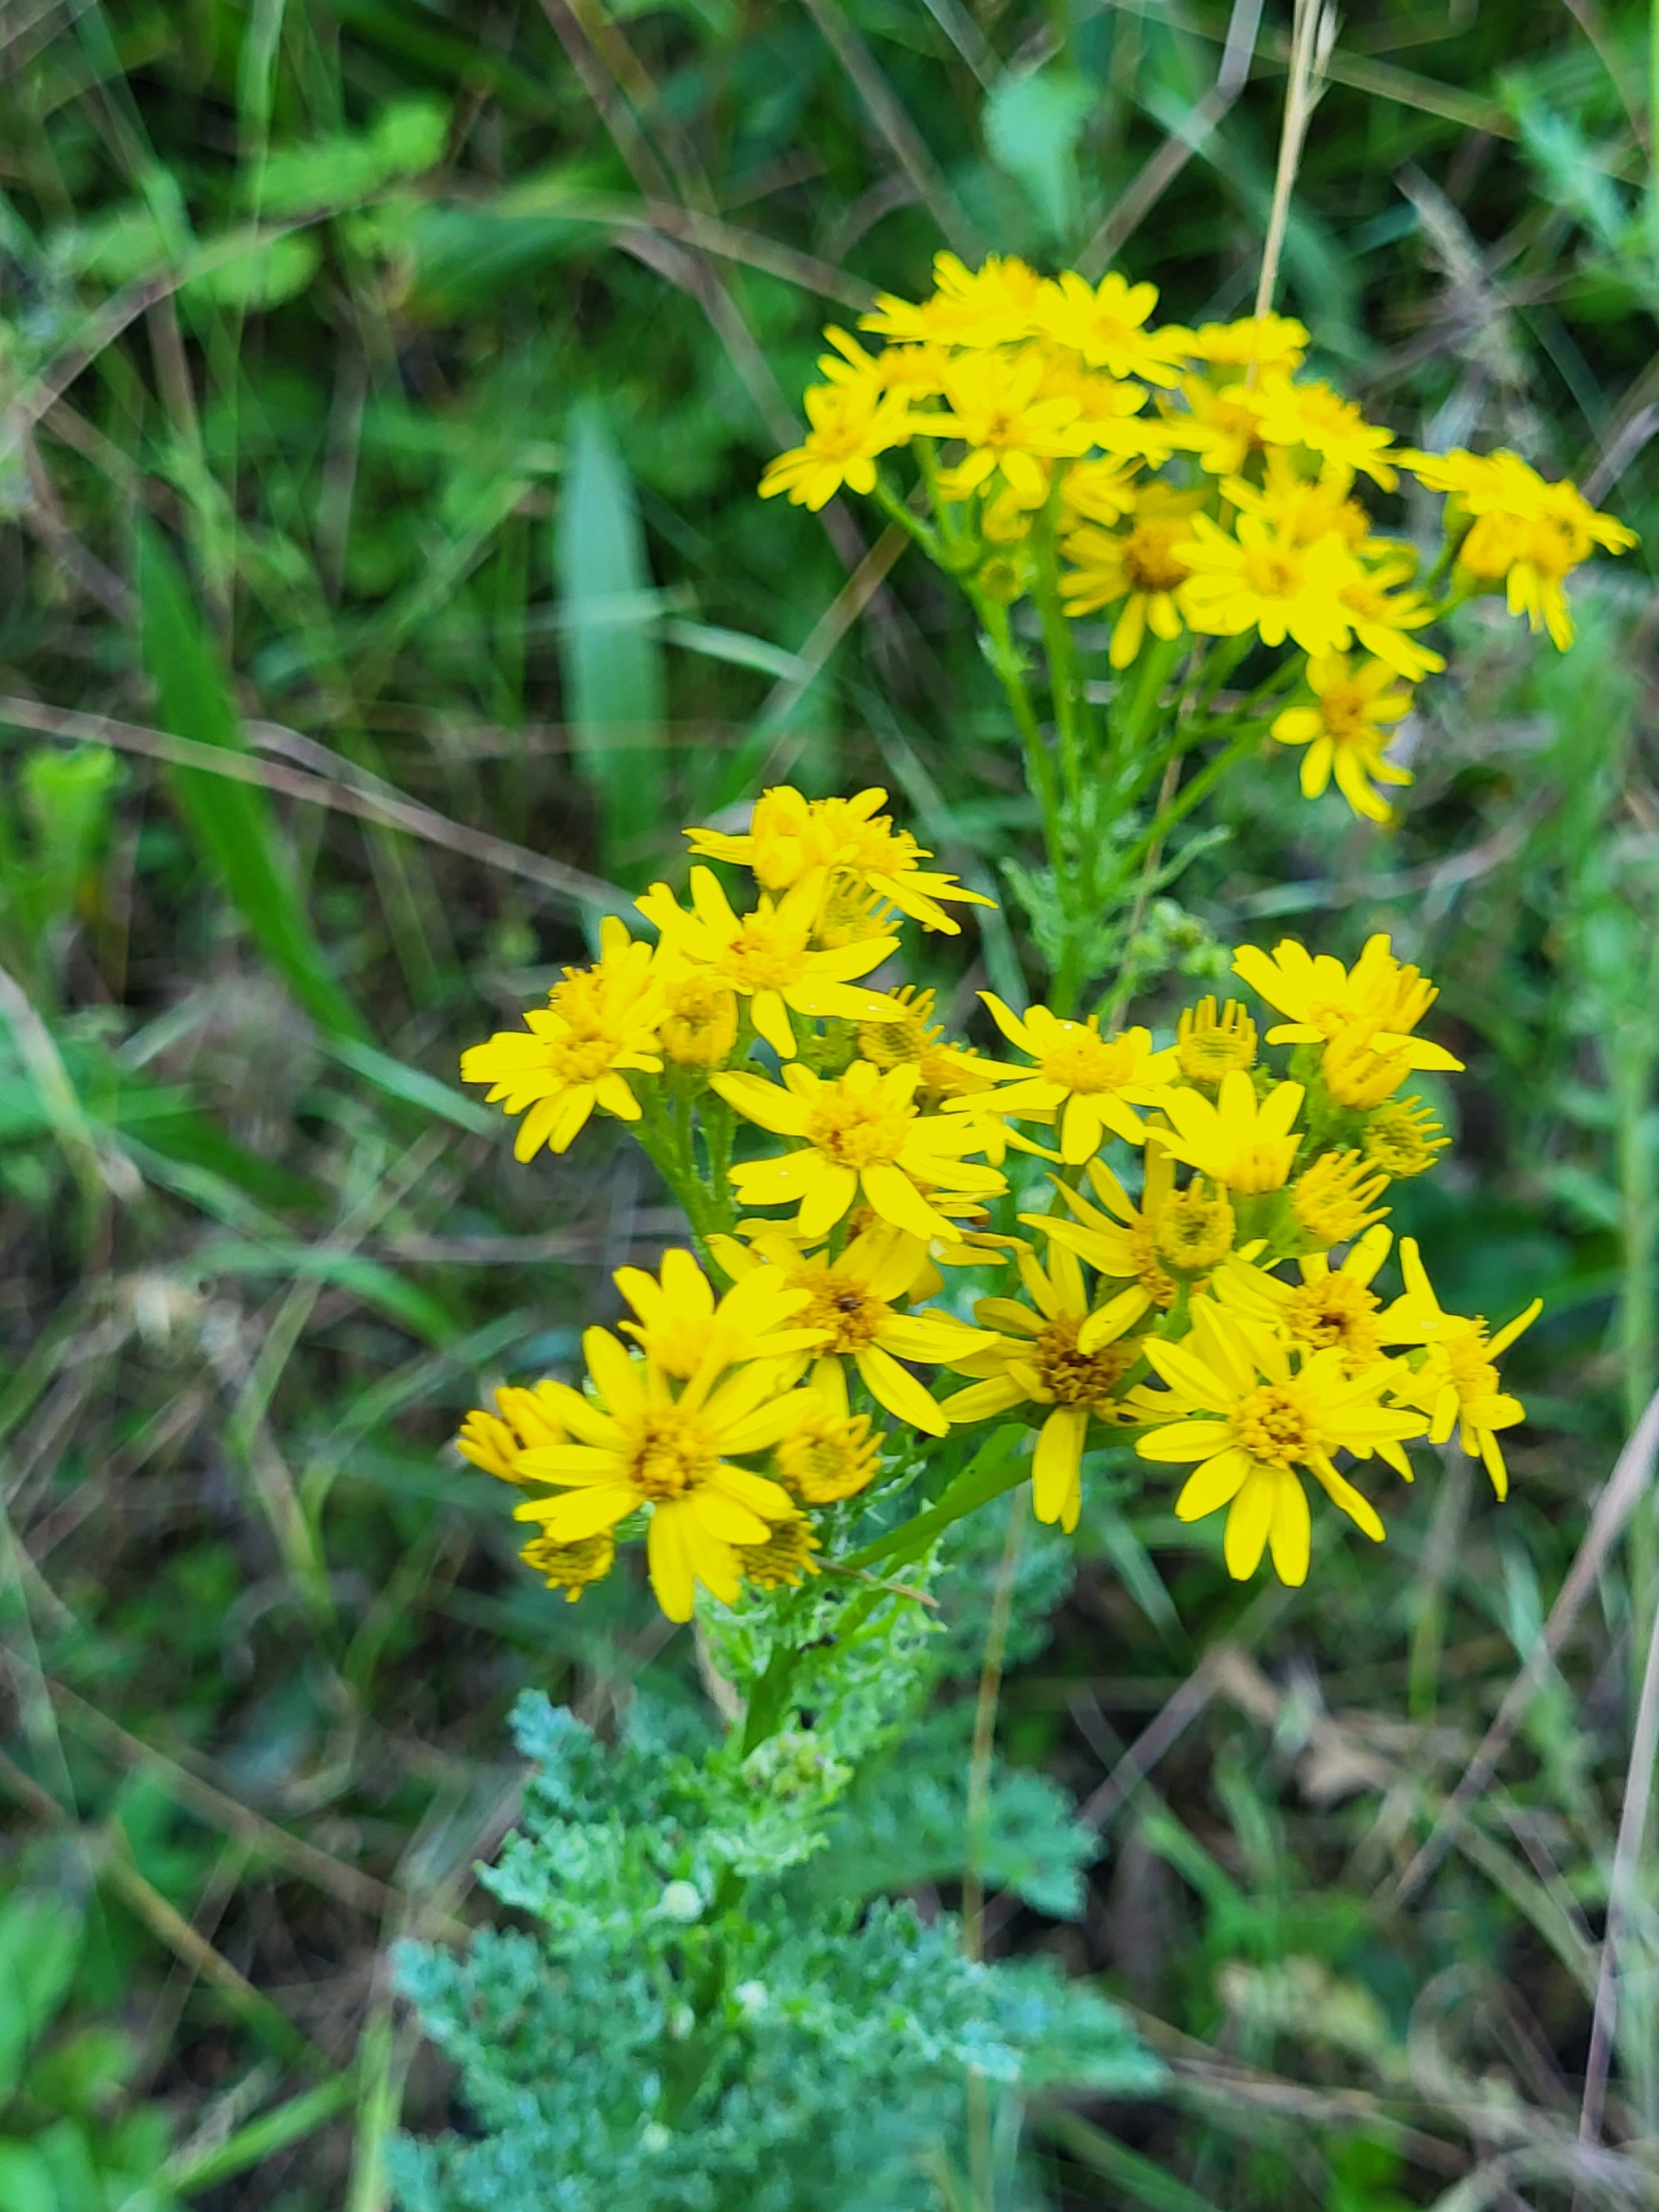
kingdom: Plantae
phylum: Tracheophyta
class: Magnoliopsida
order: Asterales
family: Asteraceae
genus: Jacobaea
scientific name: Jacobaea vulgaris
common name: Eng-brandbæger
